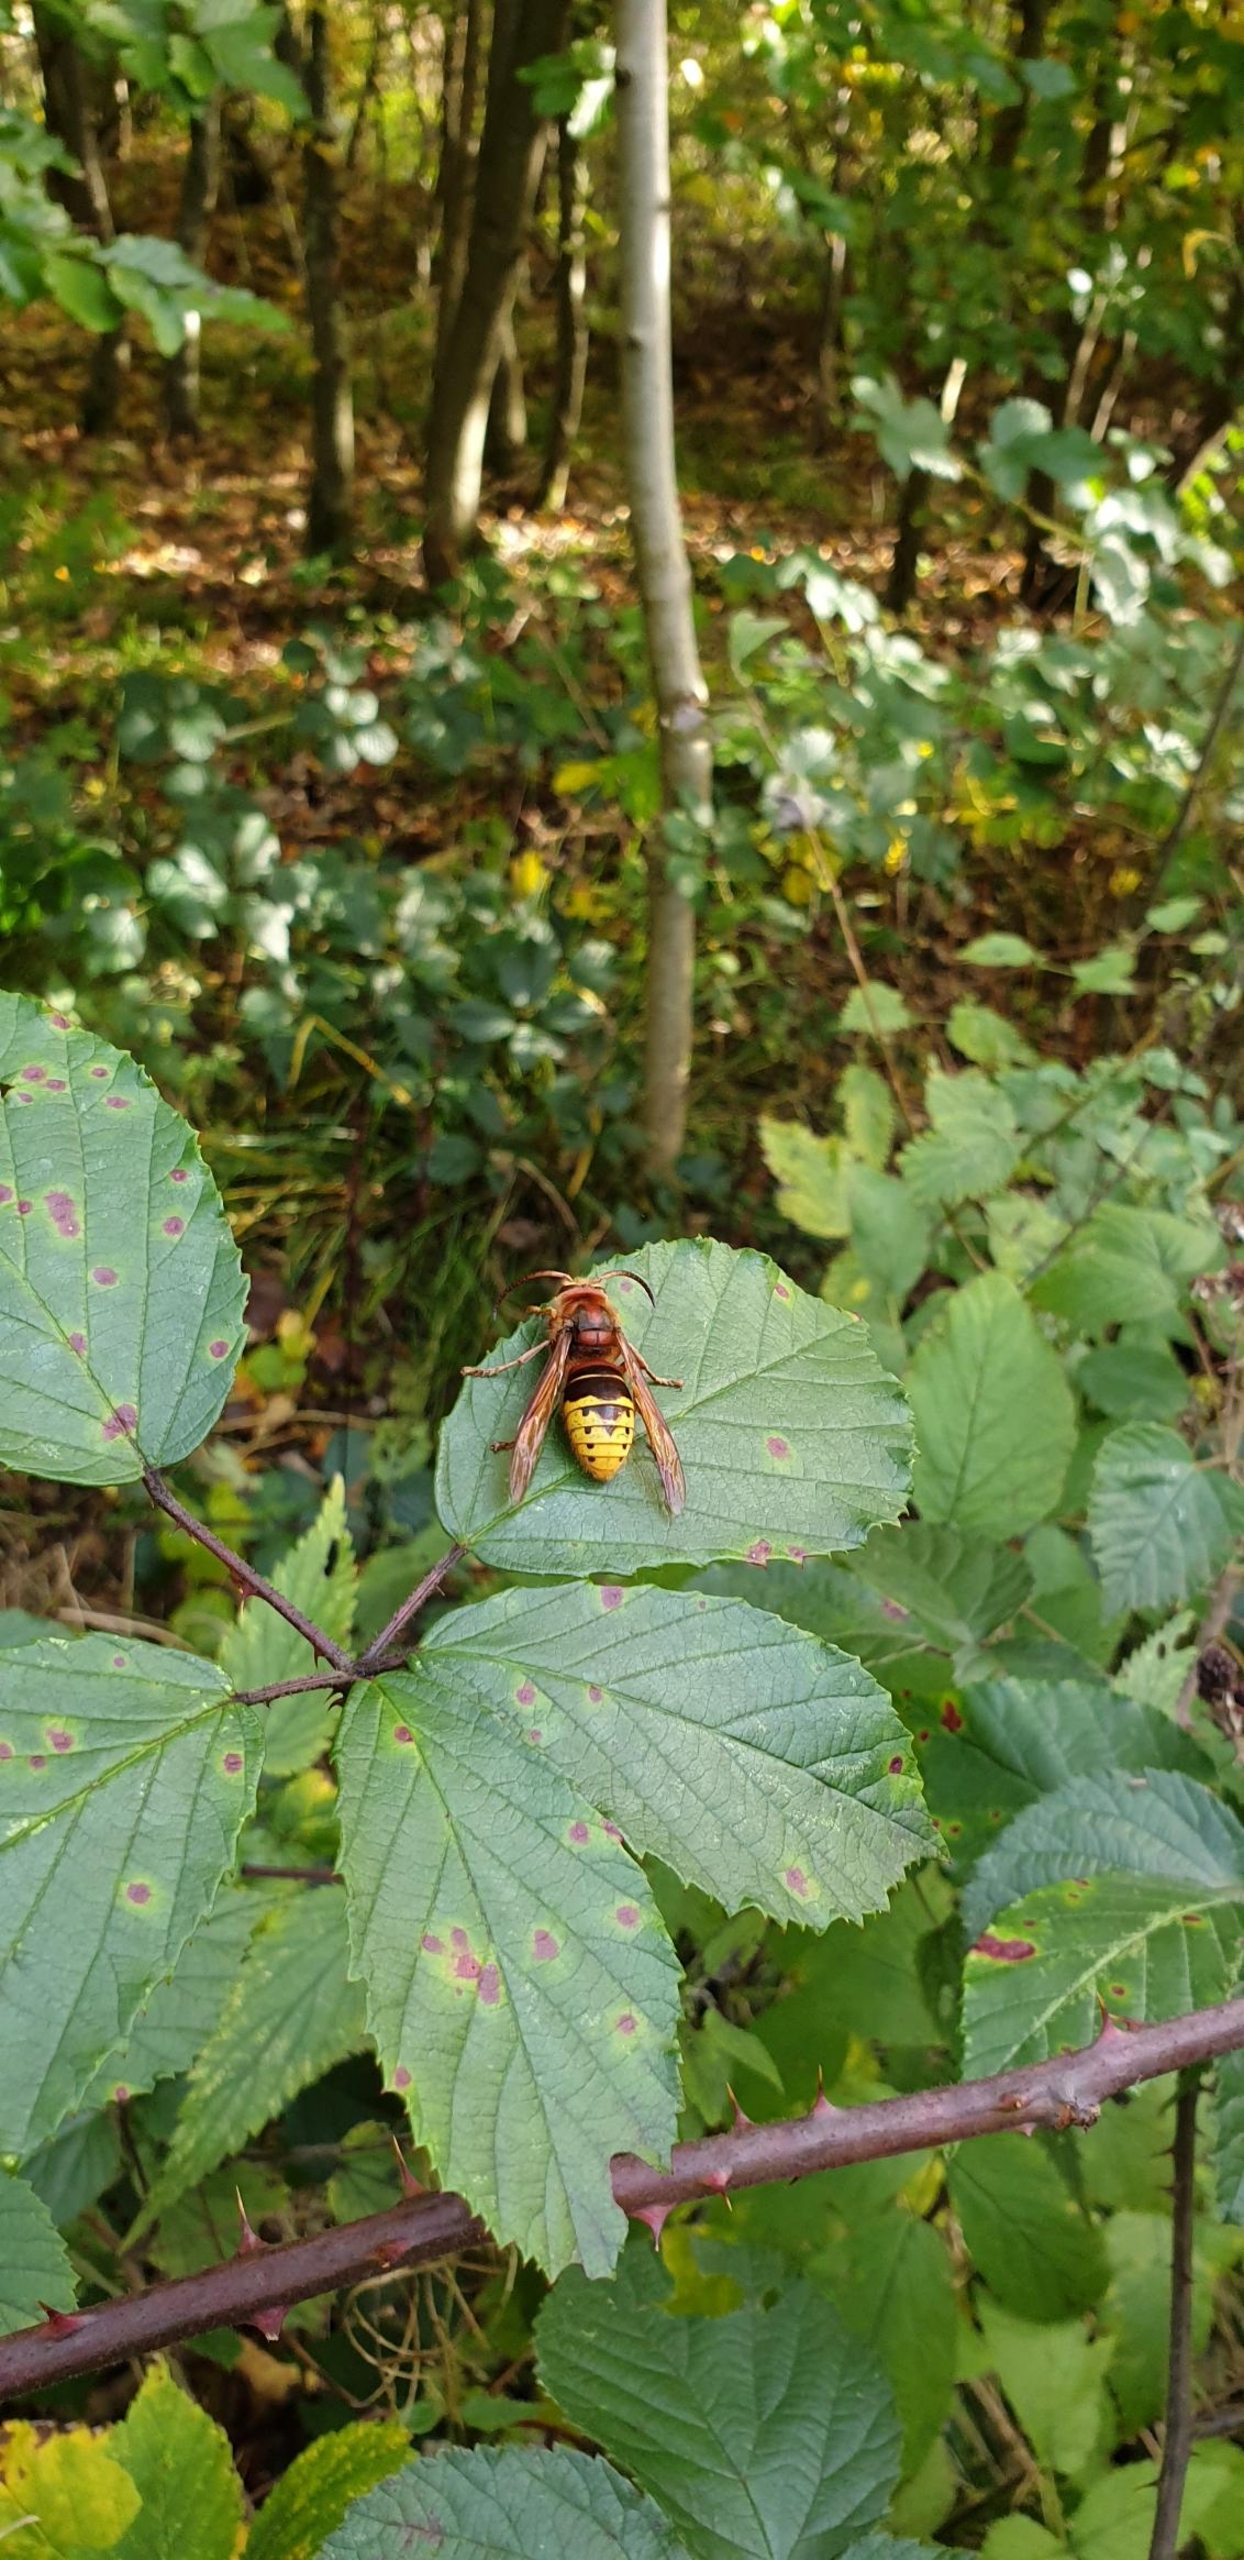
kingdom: Animalia
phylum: Arthropoda
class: Insecta
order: Hymenoptera
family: Vespidae
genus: Vespa
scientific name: Vespa crabro
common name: Stor gedehams
